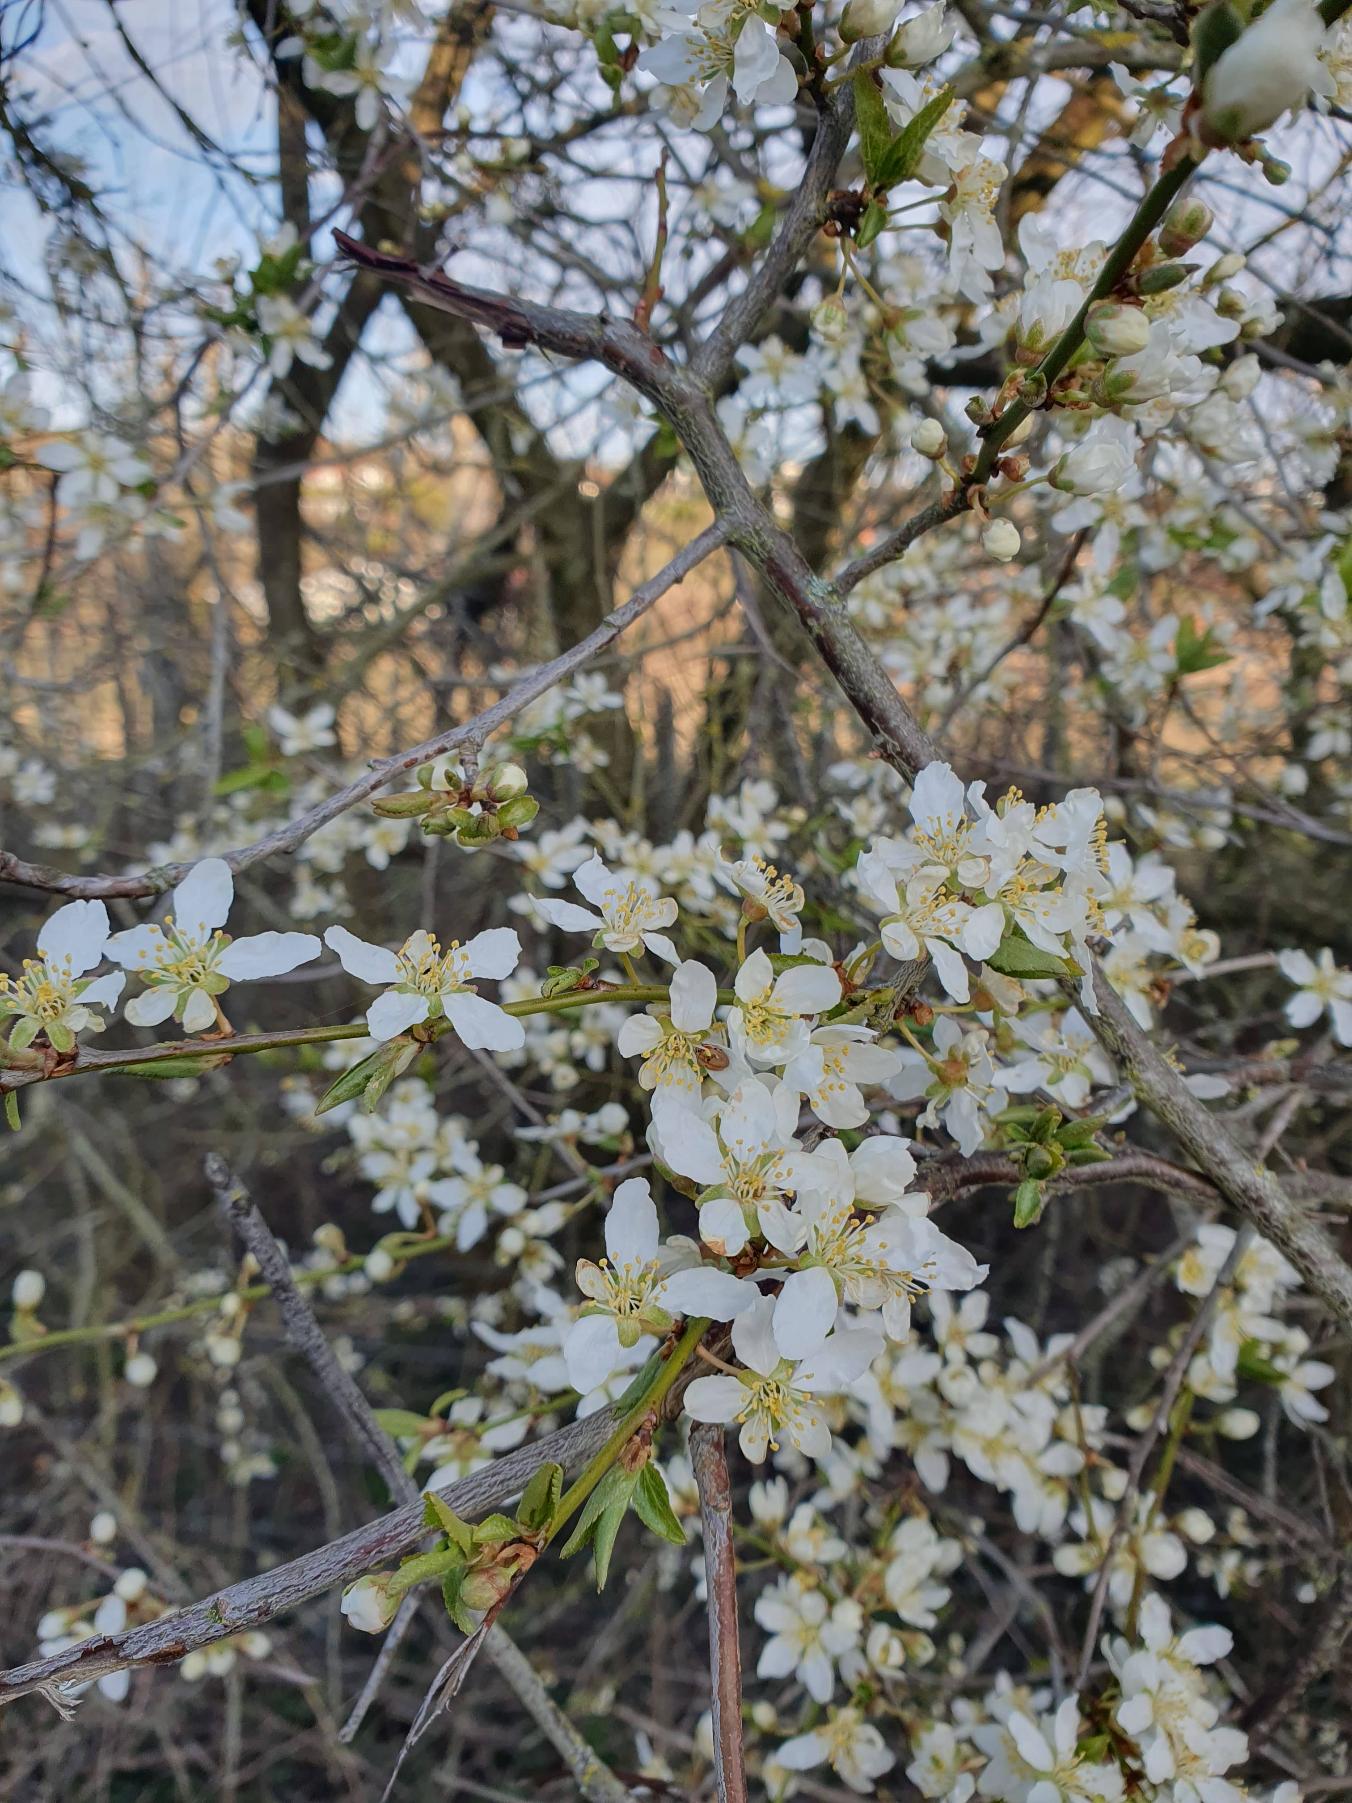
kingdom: Plantae
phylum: Tracheophyta
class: Magnoliopsida
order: Rosales
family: Rosaceae
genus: Prunus
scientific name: Prunus cerasifera
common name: Mirabel
